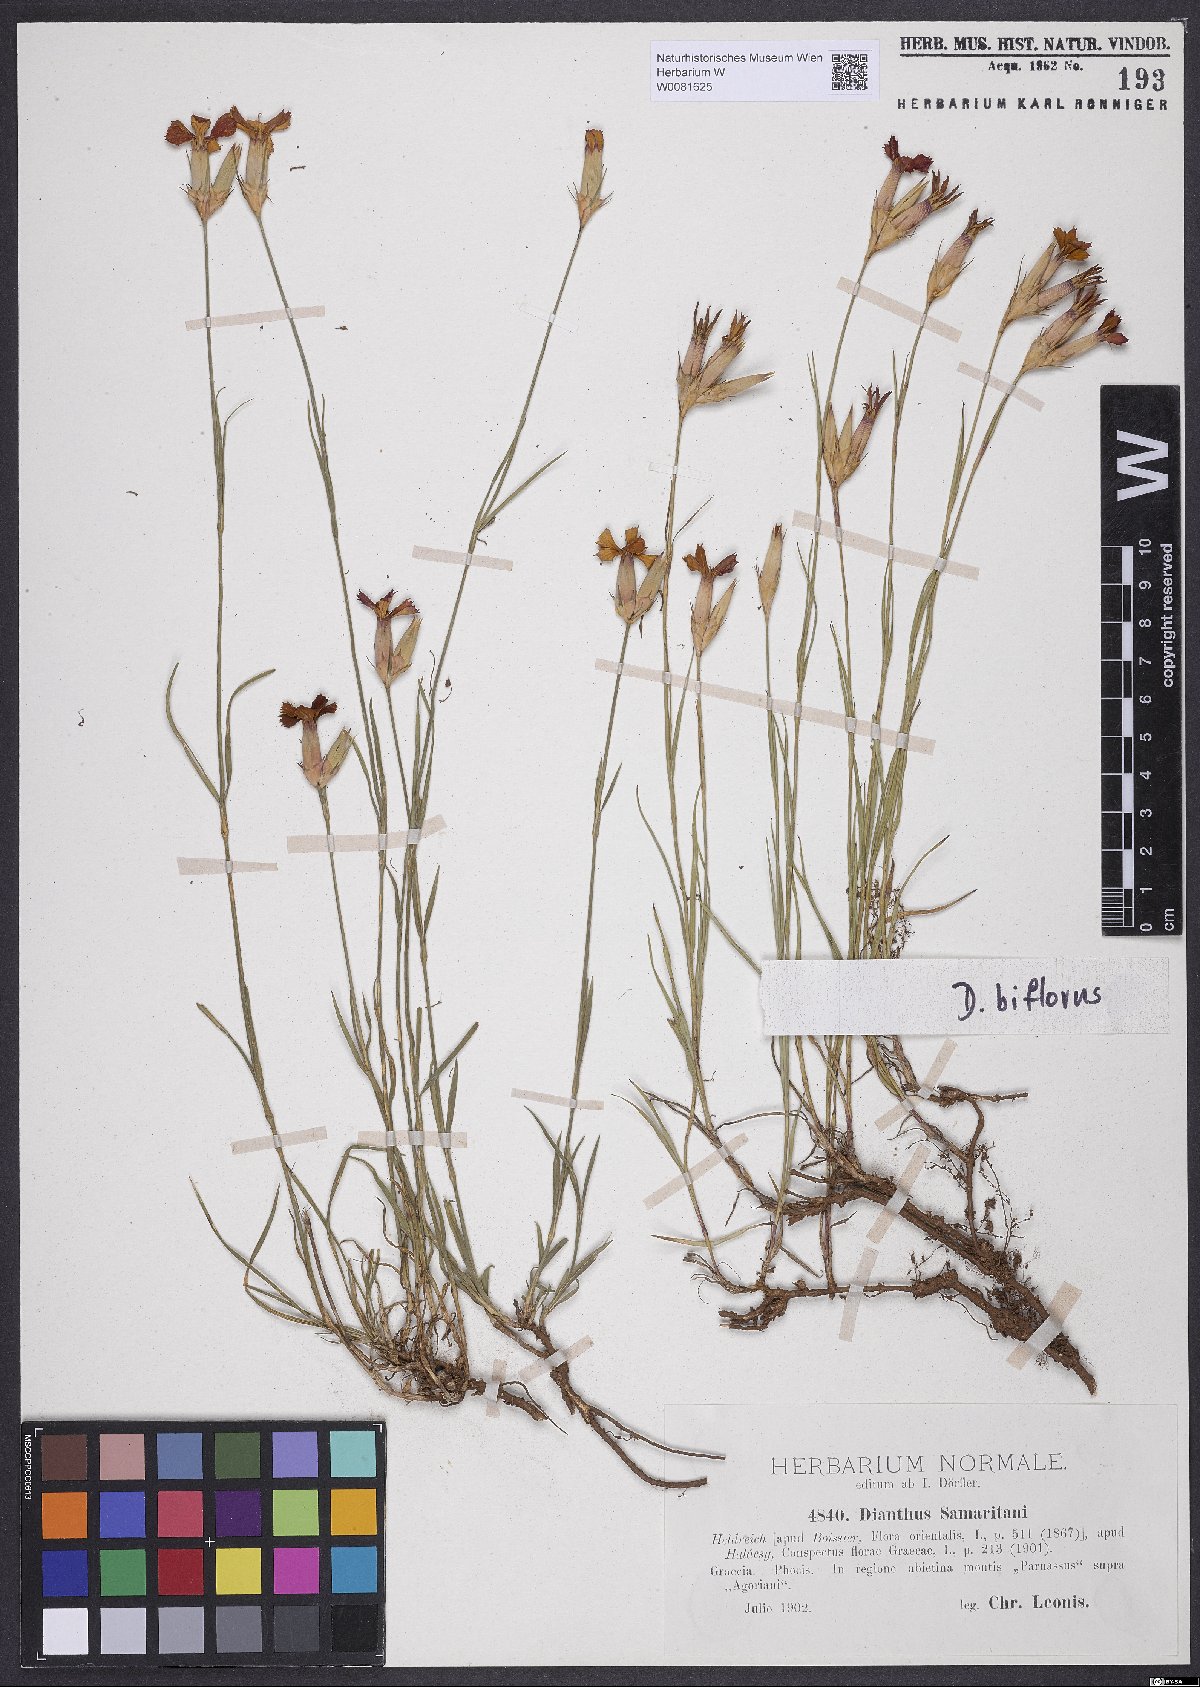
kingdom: Plantae
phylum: Tracheophyta
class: Magnoliopsida
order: Caryophyllales
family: Caryophyllaceae
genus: Dianthus
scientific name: Dianthus biflorus
